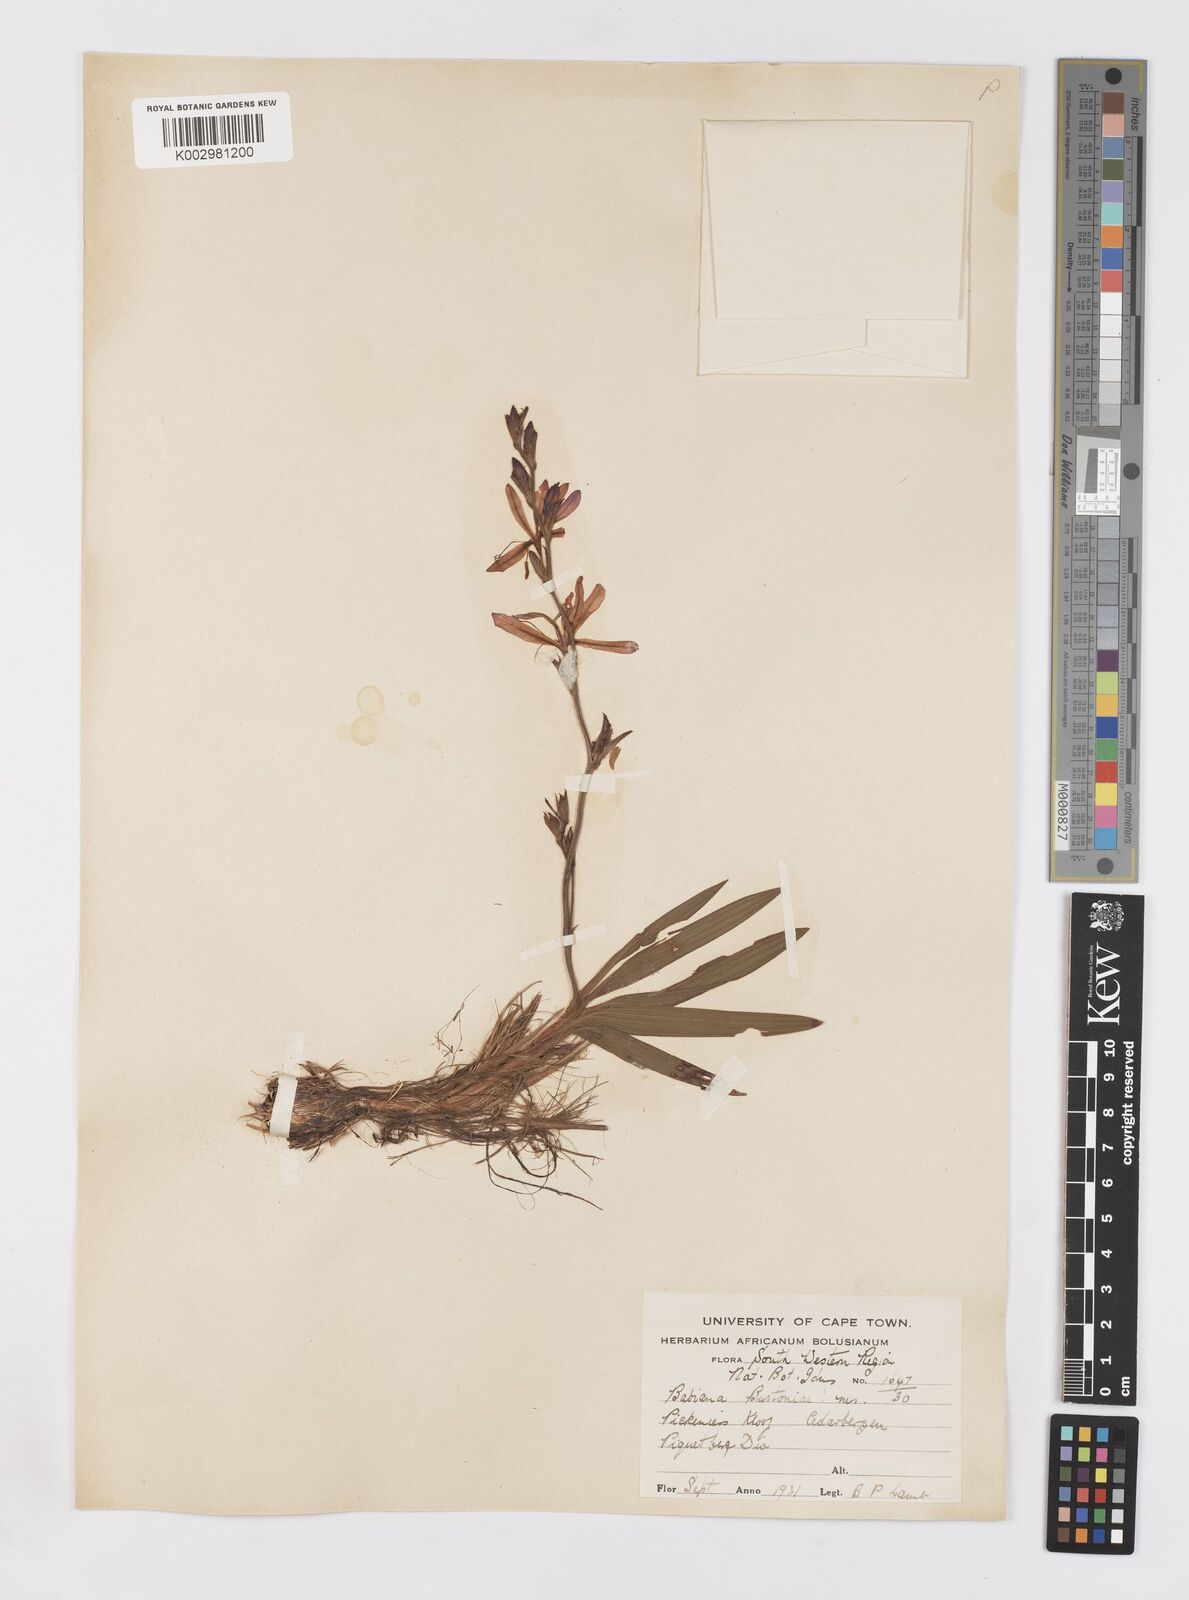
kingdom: Plantae
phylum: Tracheophyta
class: Liliopsida
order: Asparagales
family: Iridaceae
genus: Babiana
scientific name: Babiana angustifolia
